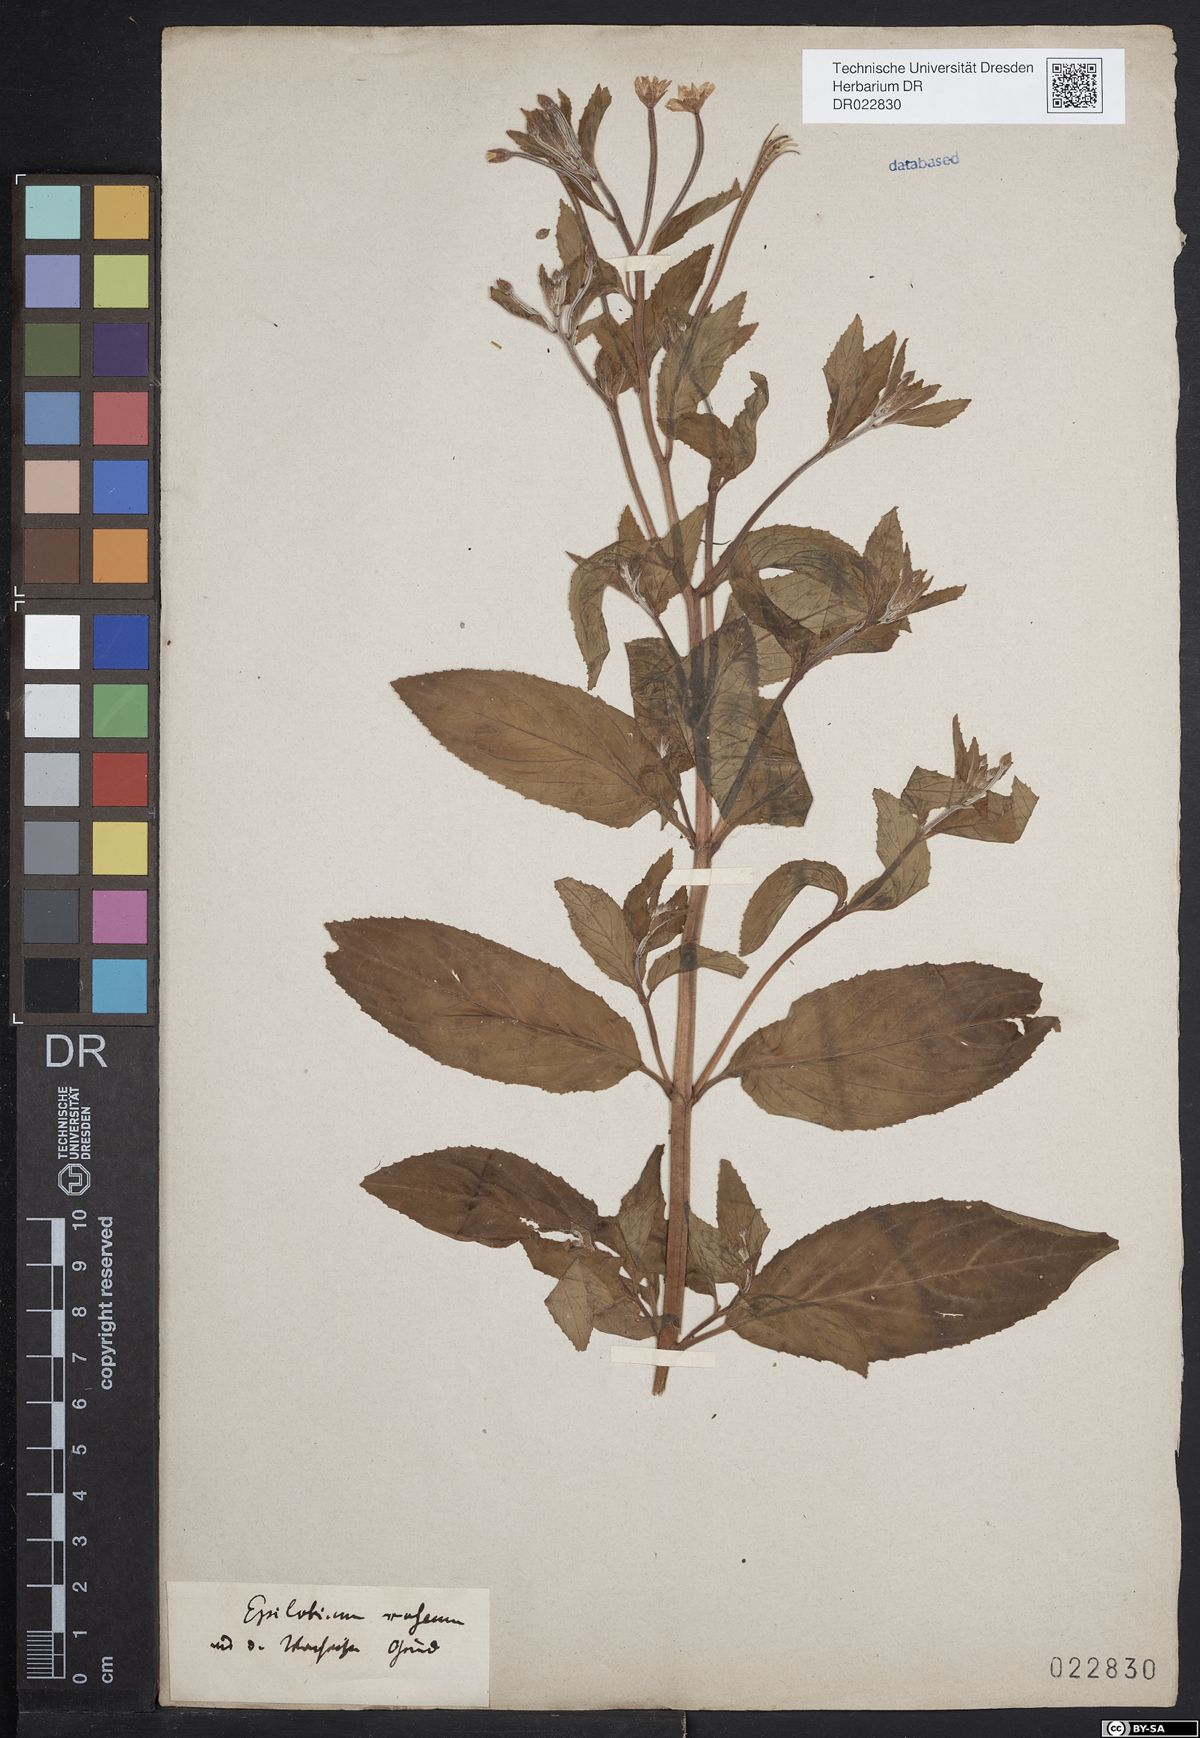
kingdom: Plantae
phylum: Tracheophyta
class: Magnoliopsida
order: Myrtales
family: Onagraceae
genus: Epilobium
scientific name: Epilobium roseum
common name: Pale willowherb
